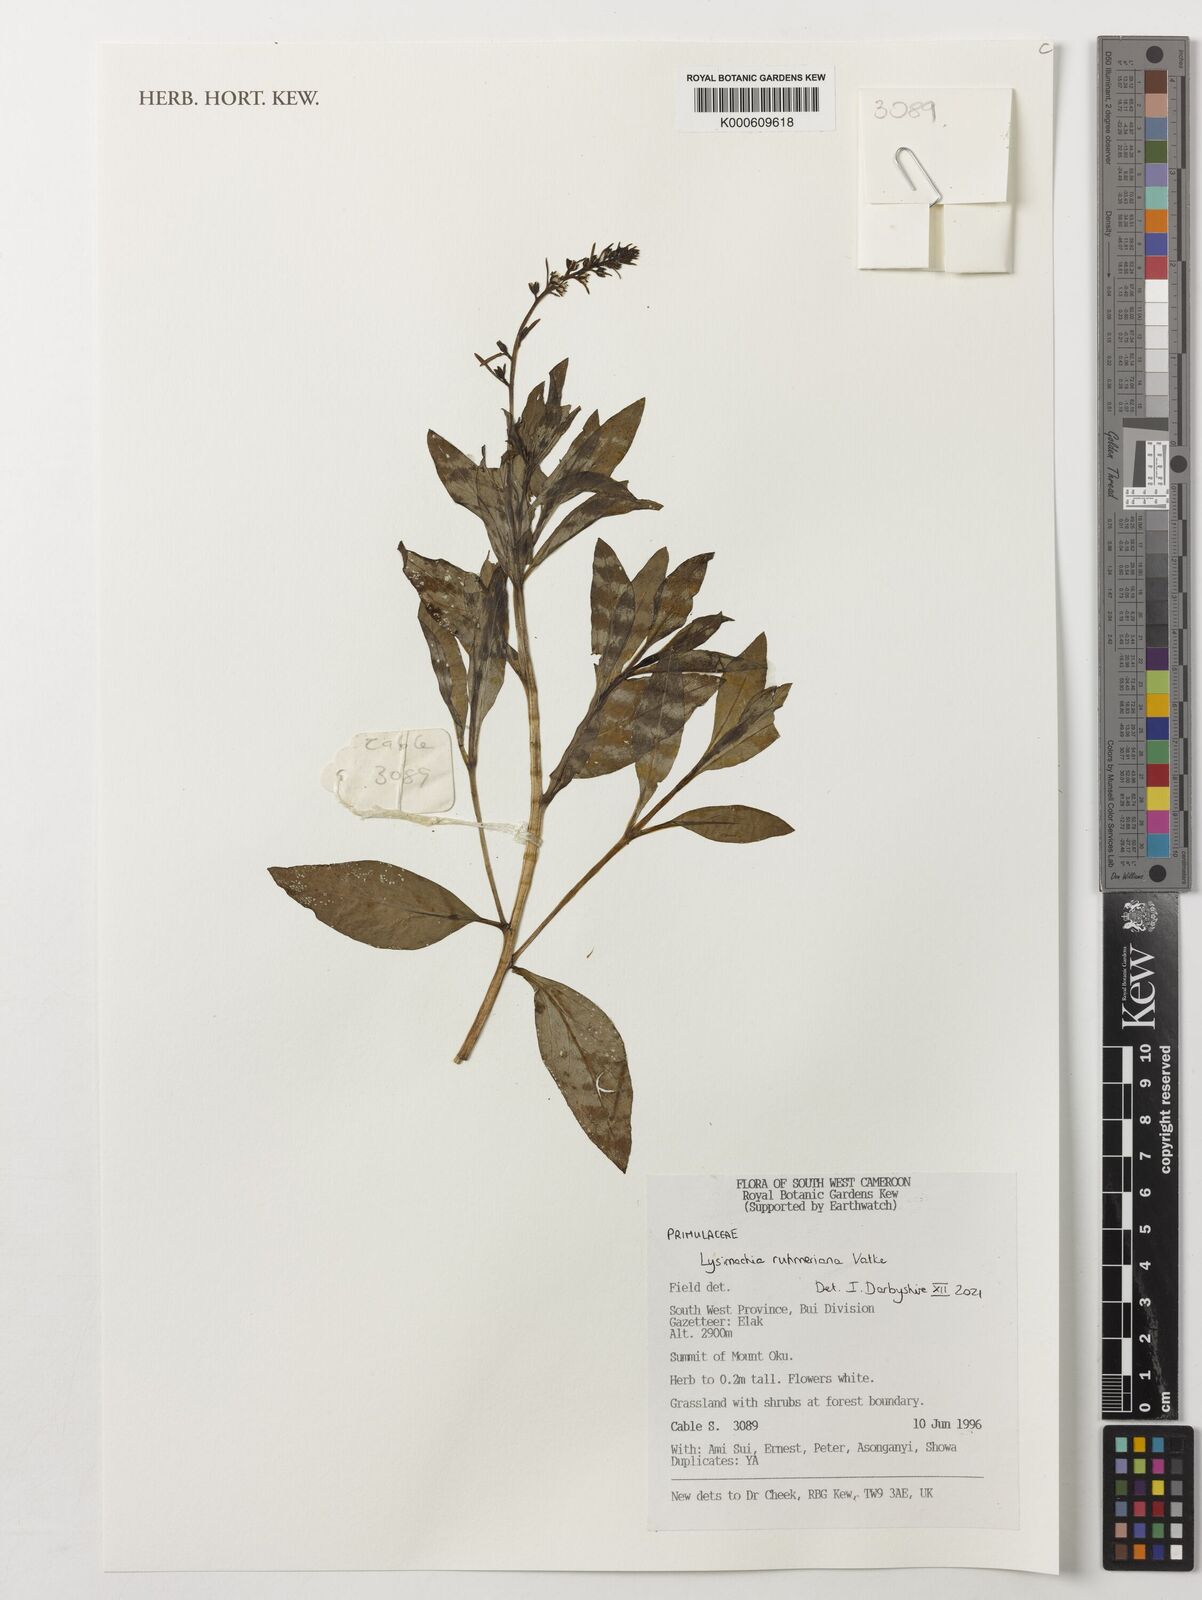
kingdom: Plantae
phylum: Tracheophyta
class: Magnoliopsida
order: Ericales
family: Primulaceae
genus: Lysimachia
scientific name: Lysimachia ruhmeriana
